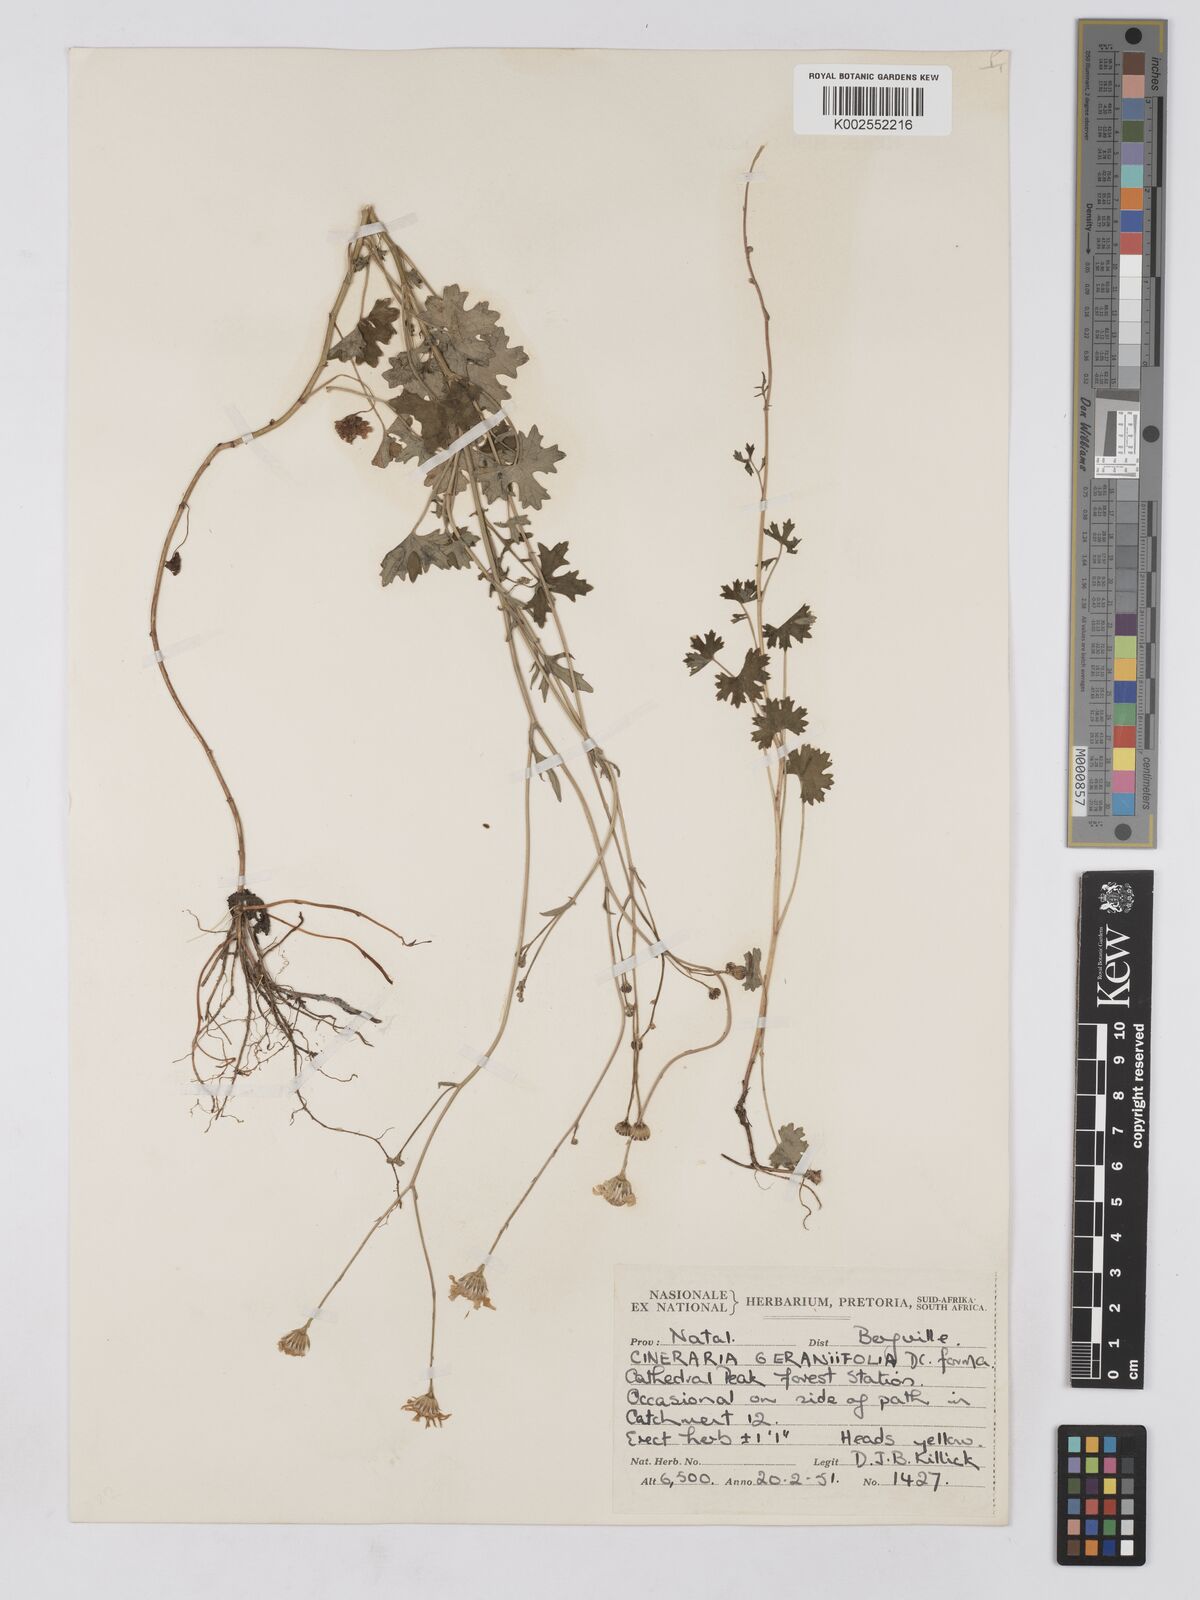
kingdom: Plantae
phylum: Tracheophyta
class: Magnoliopsida
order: Asterales
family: Asteraceae
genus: Cineraria
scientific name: Cineraria geraniifolia
